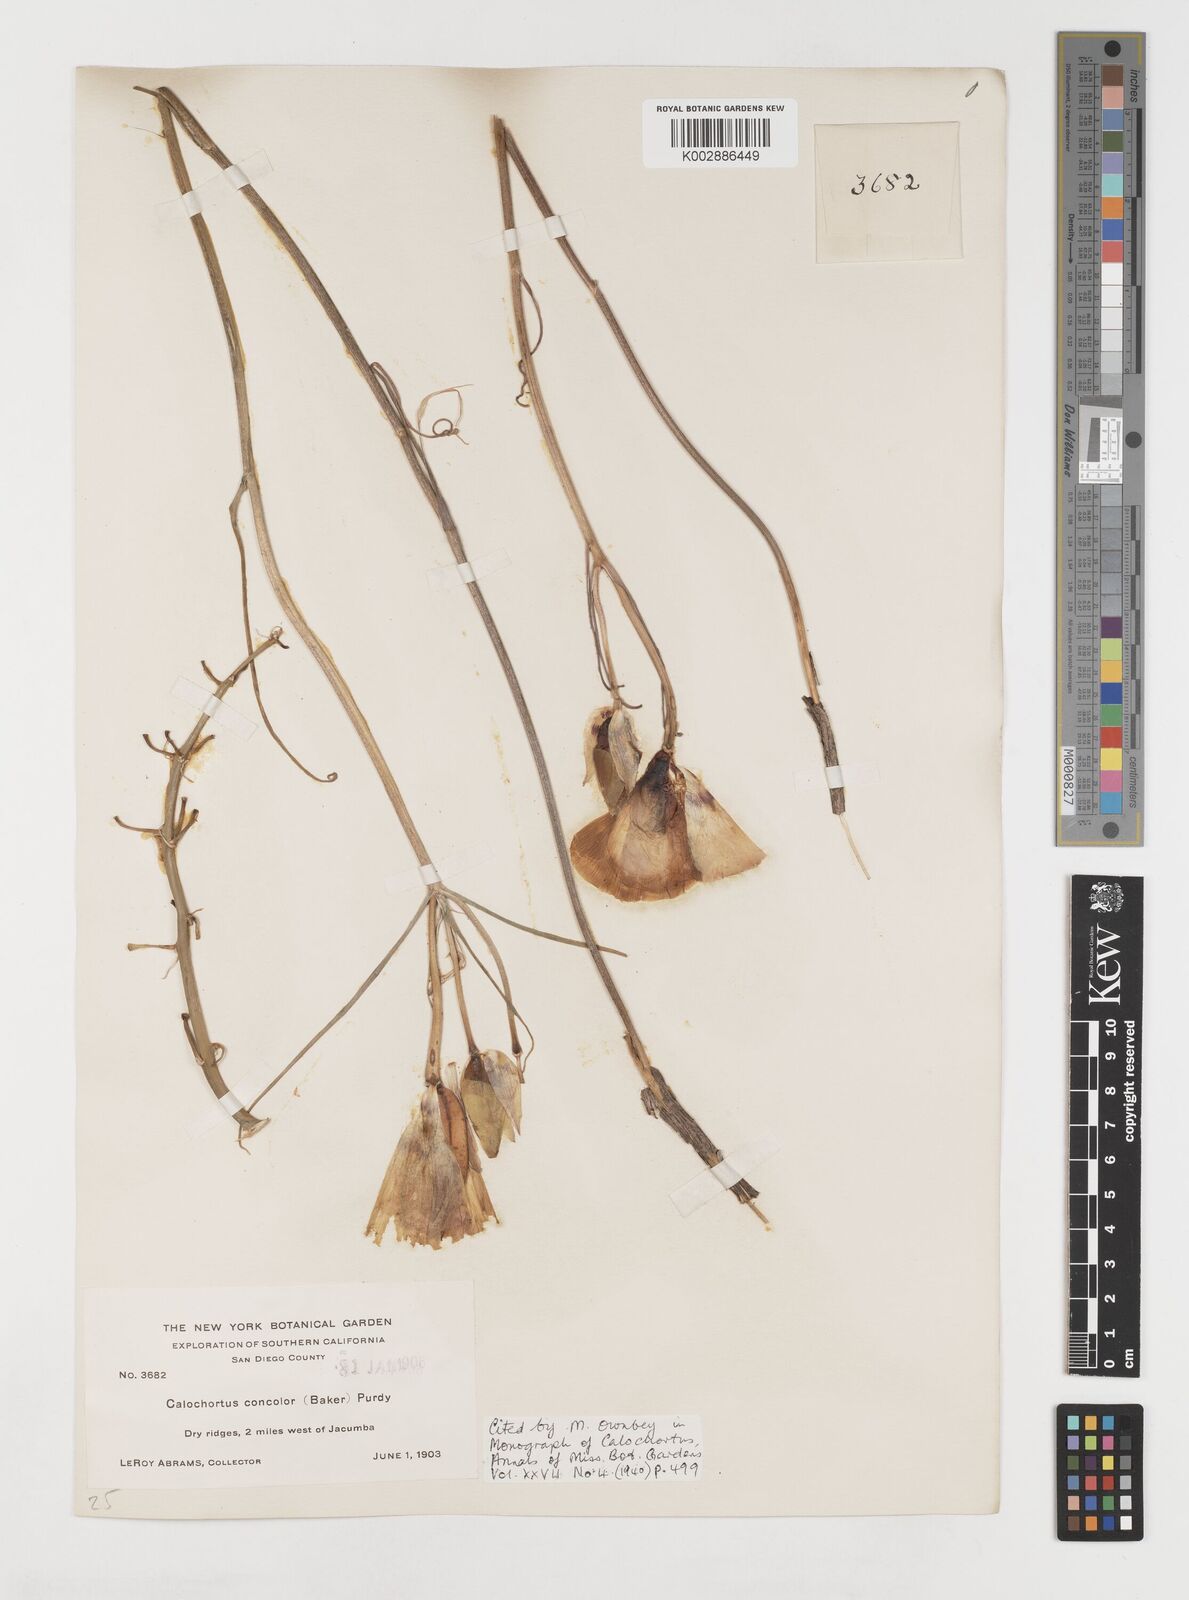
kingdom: Plantae
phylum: Tracheophyta
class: Liliopsida
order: Liliales
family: Liliaceae
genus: Calochortus
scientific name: Calochortus concolor
